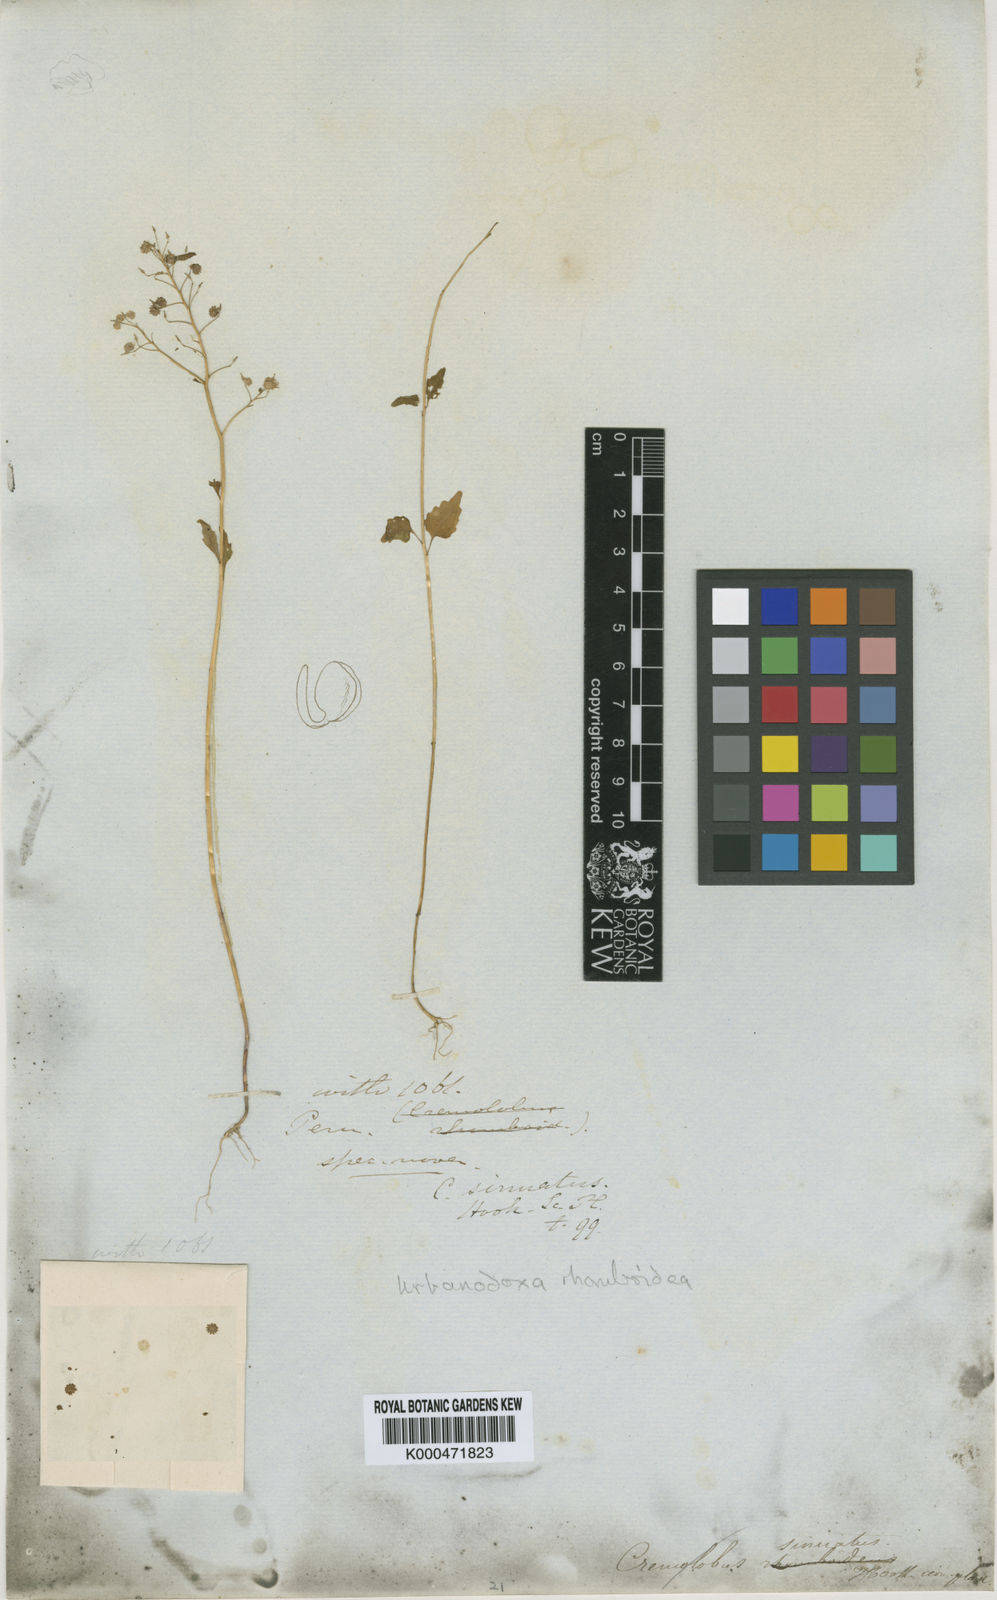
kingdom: Plantae
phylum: Tracheophyta
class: Magnoliopsida
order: Brassicales
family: Brassicaceae
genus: Cremolobus
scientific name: Cremolobus chilensis
